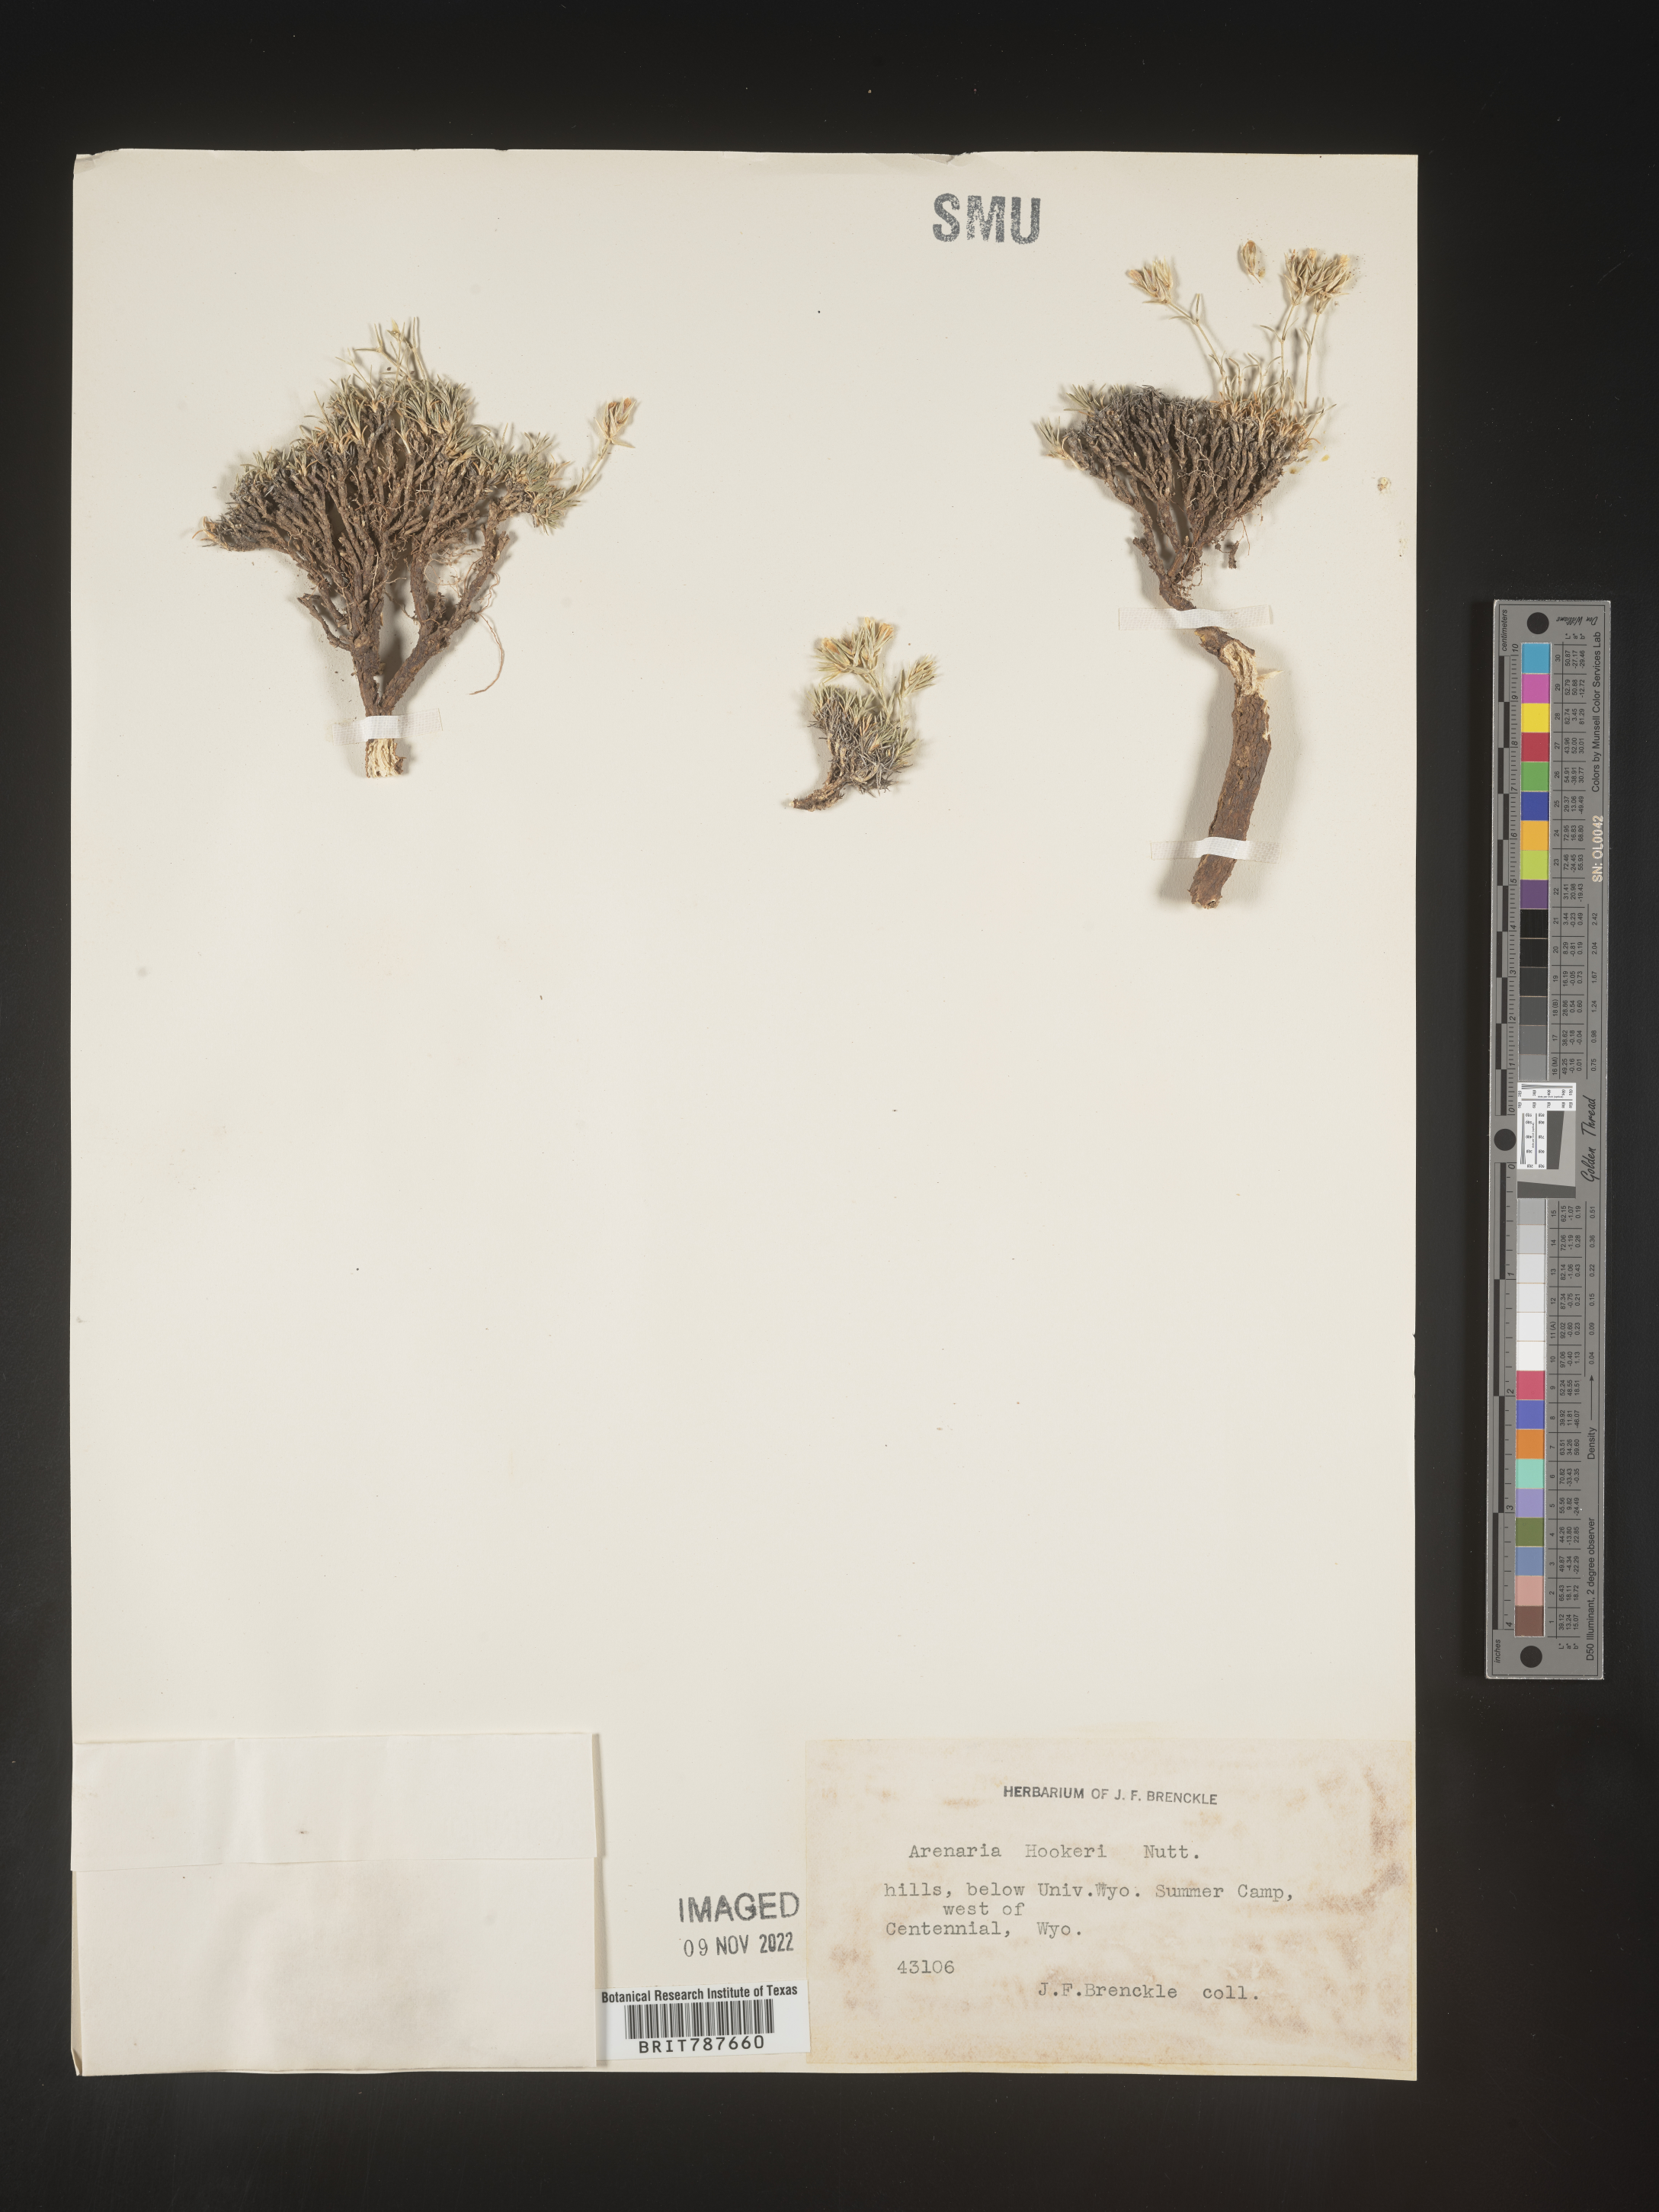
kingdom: Plantae
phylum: Tracheophyta
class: Magnoliopsida
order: Caryophyllales
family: Caryophyllaceae
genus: Arenaria
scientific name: Arenaria
